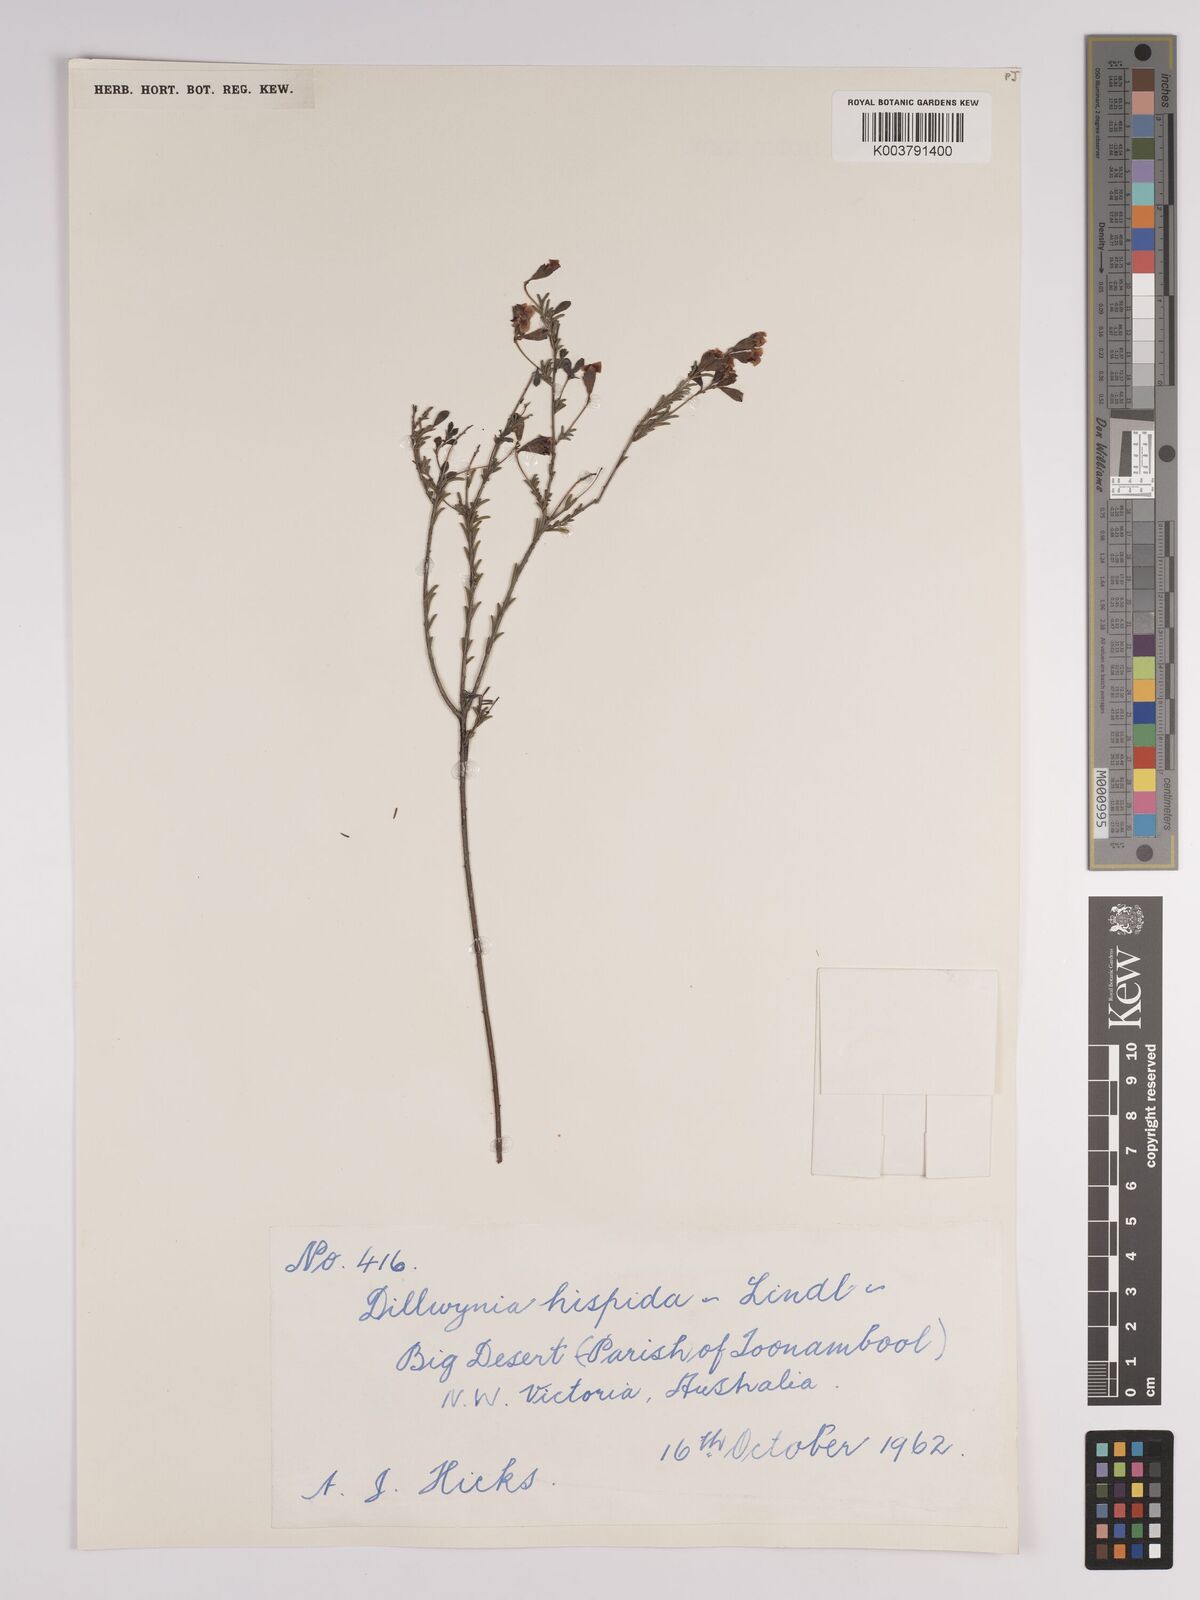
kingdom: Plantae
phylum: Tracheophyta
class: Magnoliopsida
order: Fabales
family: Fabaceae
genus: Dillwynia
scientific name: Dillwynia hispida
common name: Red parrot-pea
